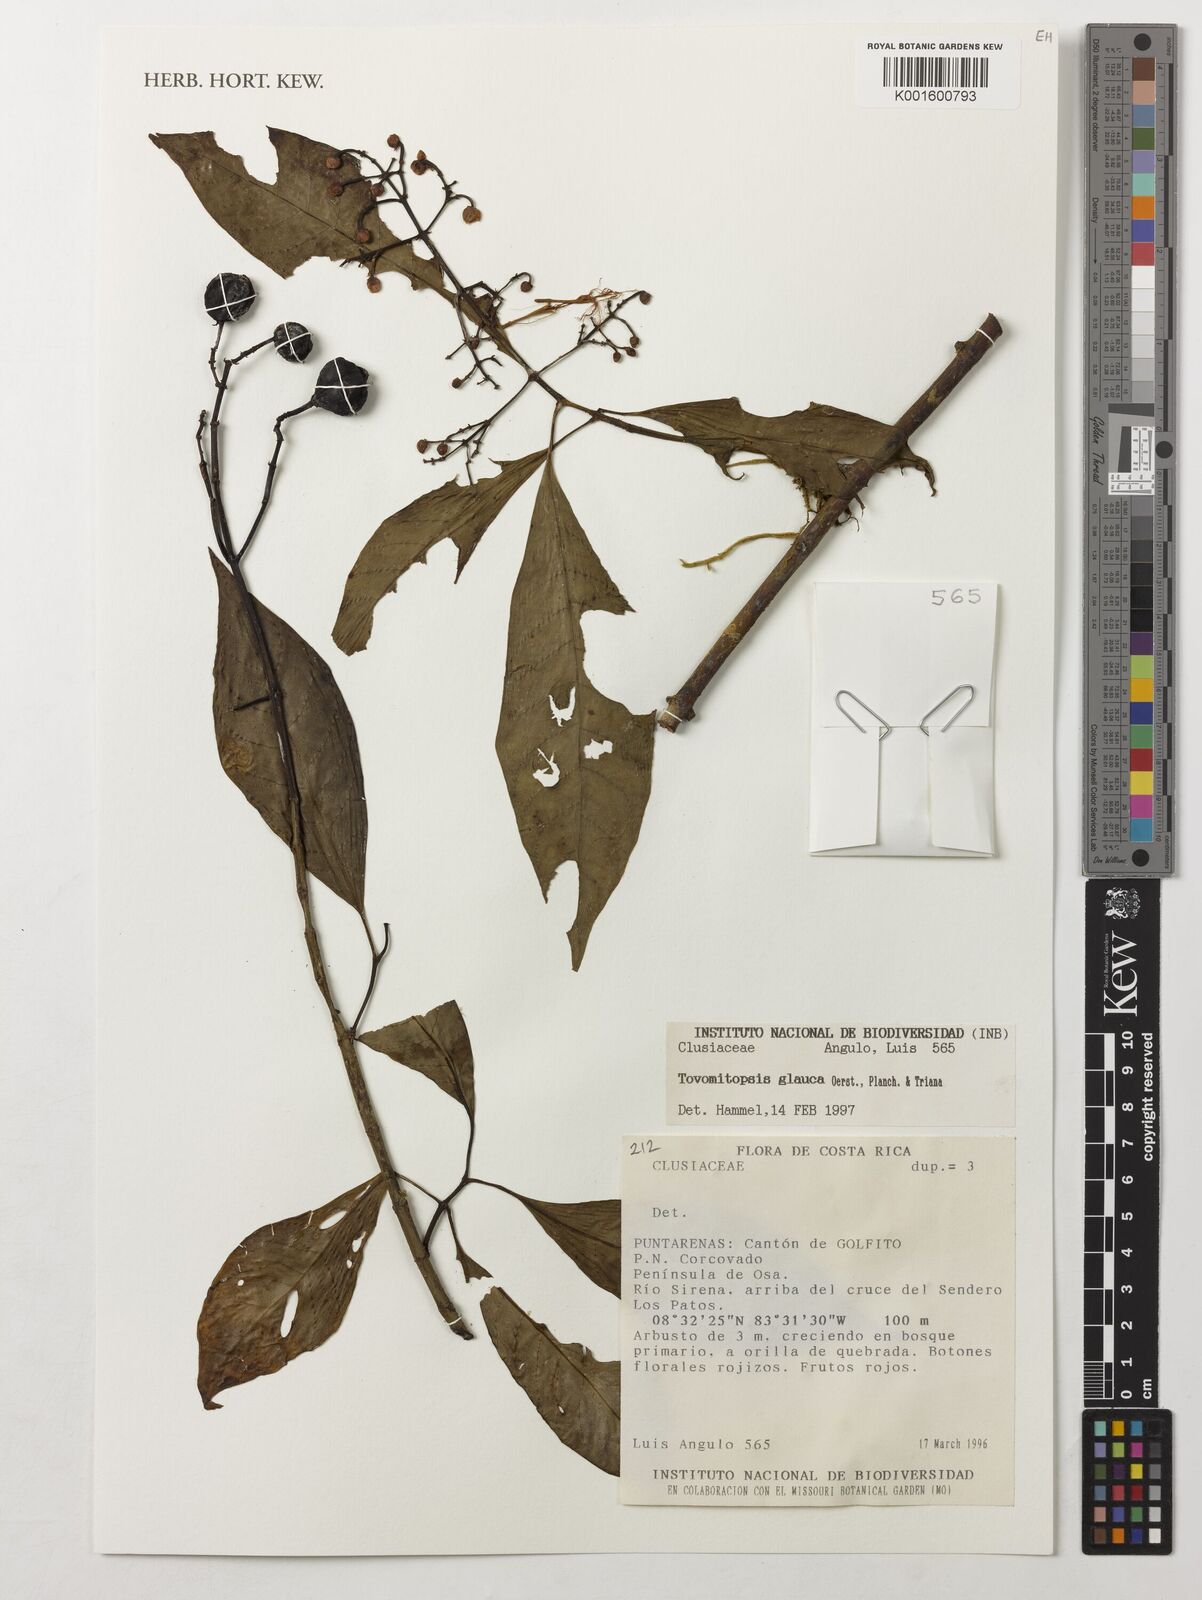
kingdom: Plantae
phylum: Tracheophyta
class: Magnoliopsida
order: Malpighiales
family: Clusiaceae
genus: Chrysochlamys
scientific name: Chrysochlamys glauca
